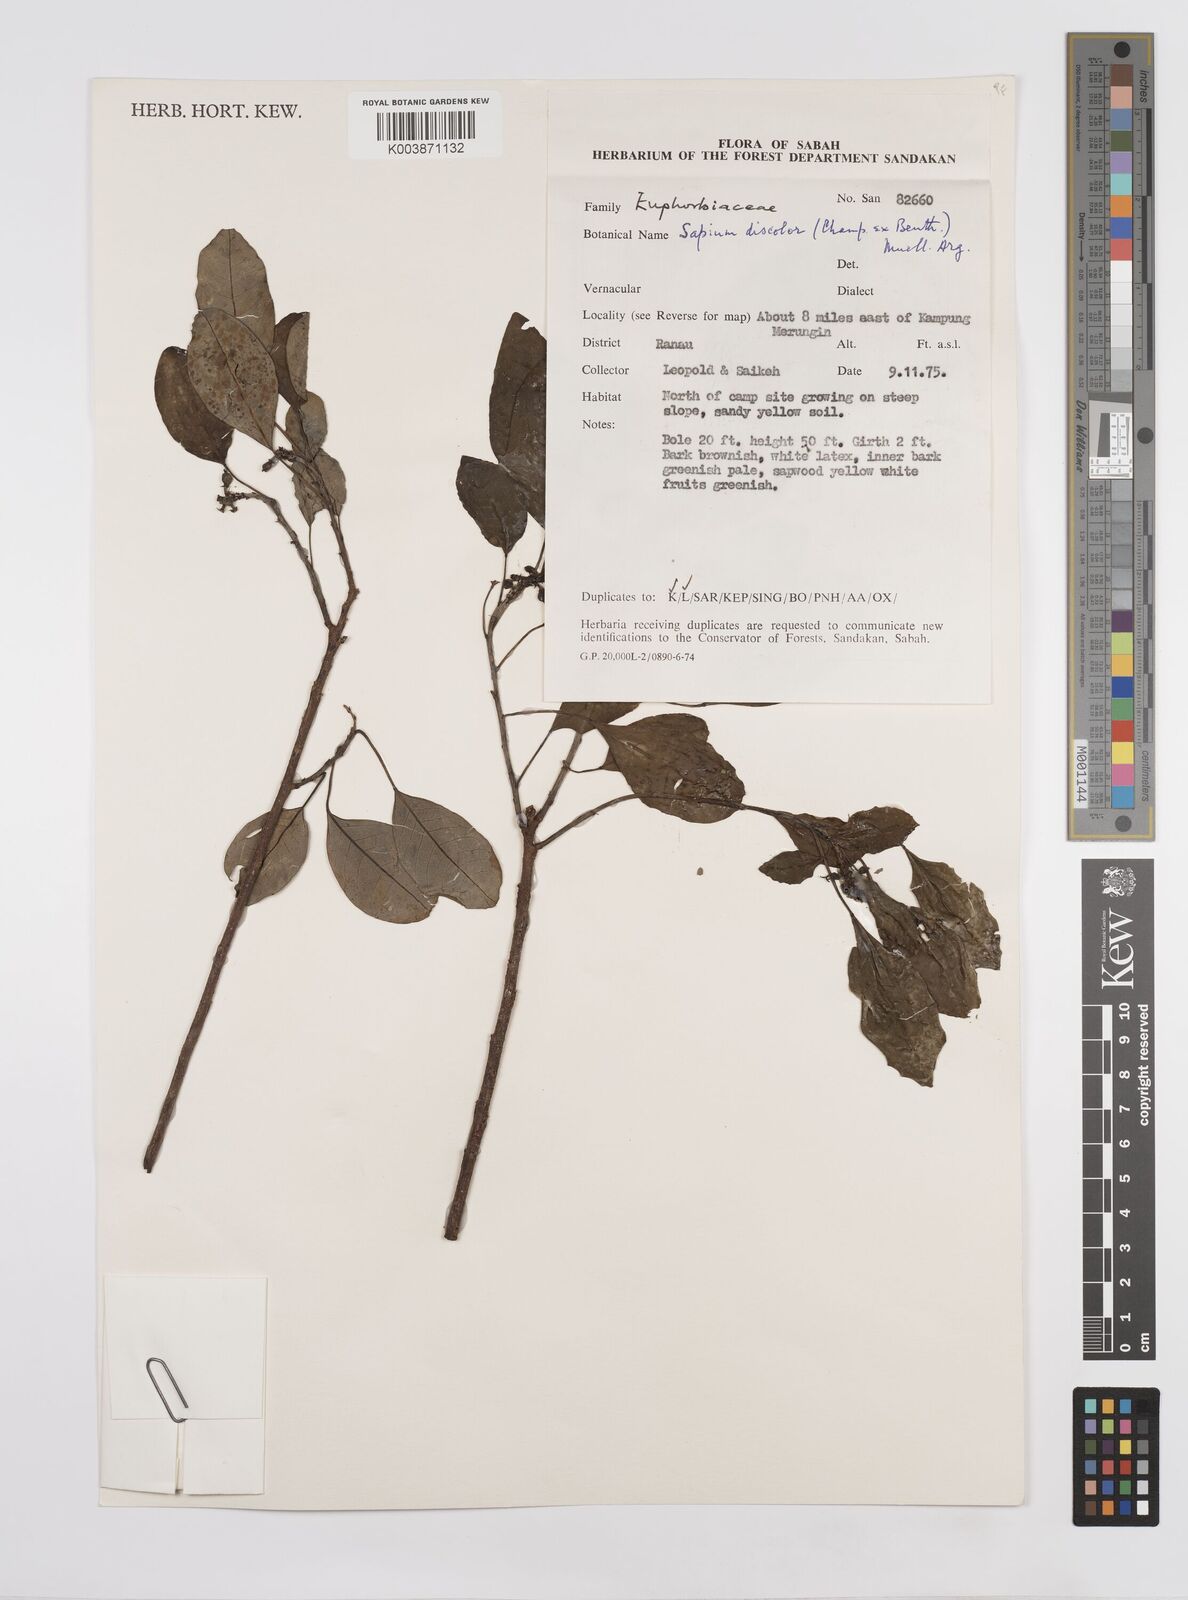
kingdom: Plantae
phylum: Tracheophyta
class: Magnoliopsida
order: Malpighiales
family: Euphorbiaceae
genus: Triadica
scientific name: Triadica cochinchinensis
